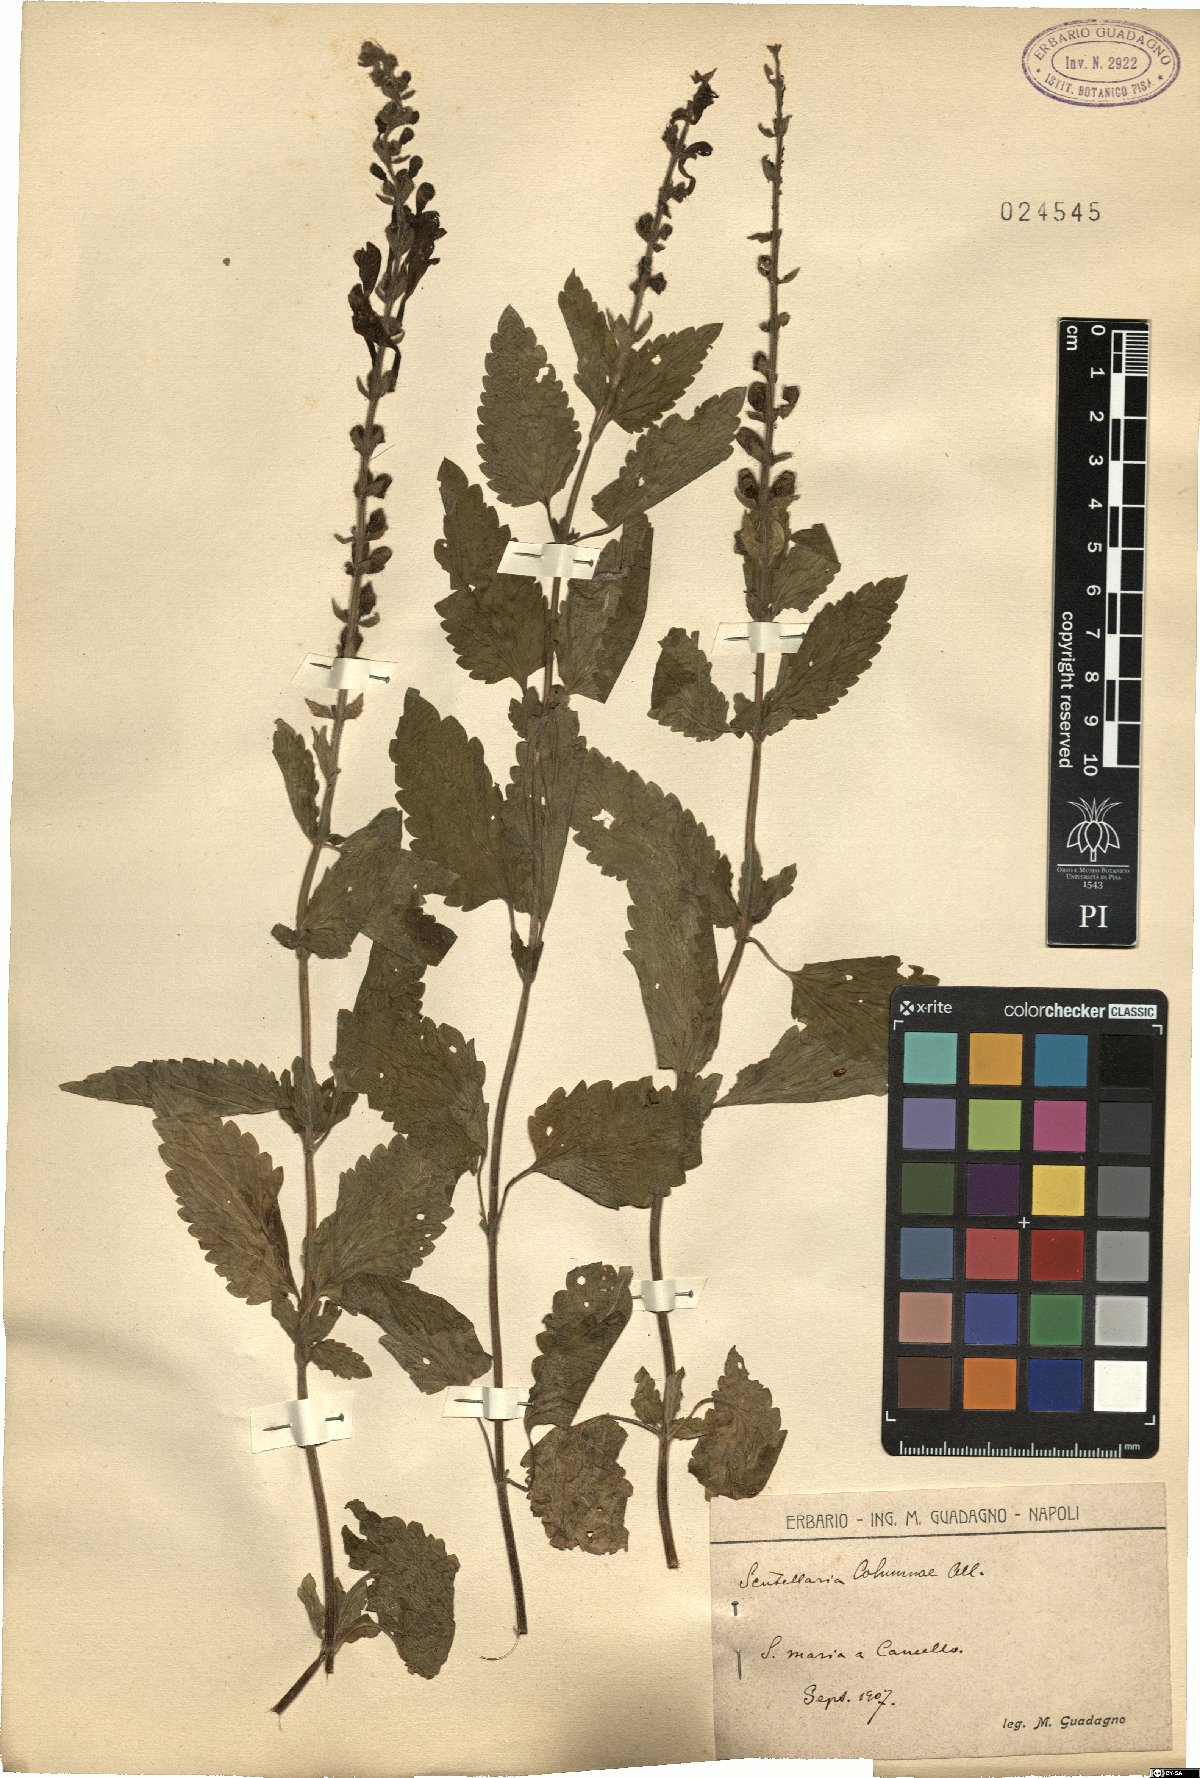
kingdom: Plantae
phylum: Tracheophyta
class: Magnoliopsida
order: Lamiales
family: Lamiaceae
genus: Scutellaria
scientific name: Scutellaria columnae
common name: Large skullcap
